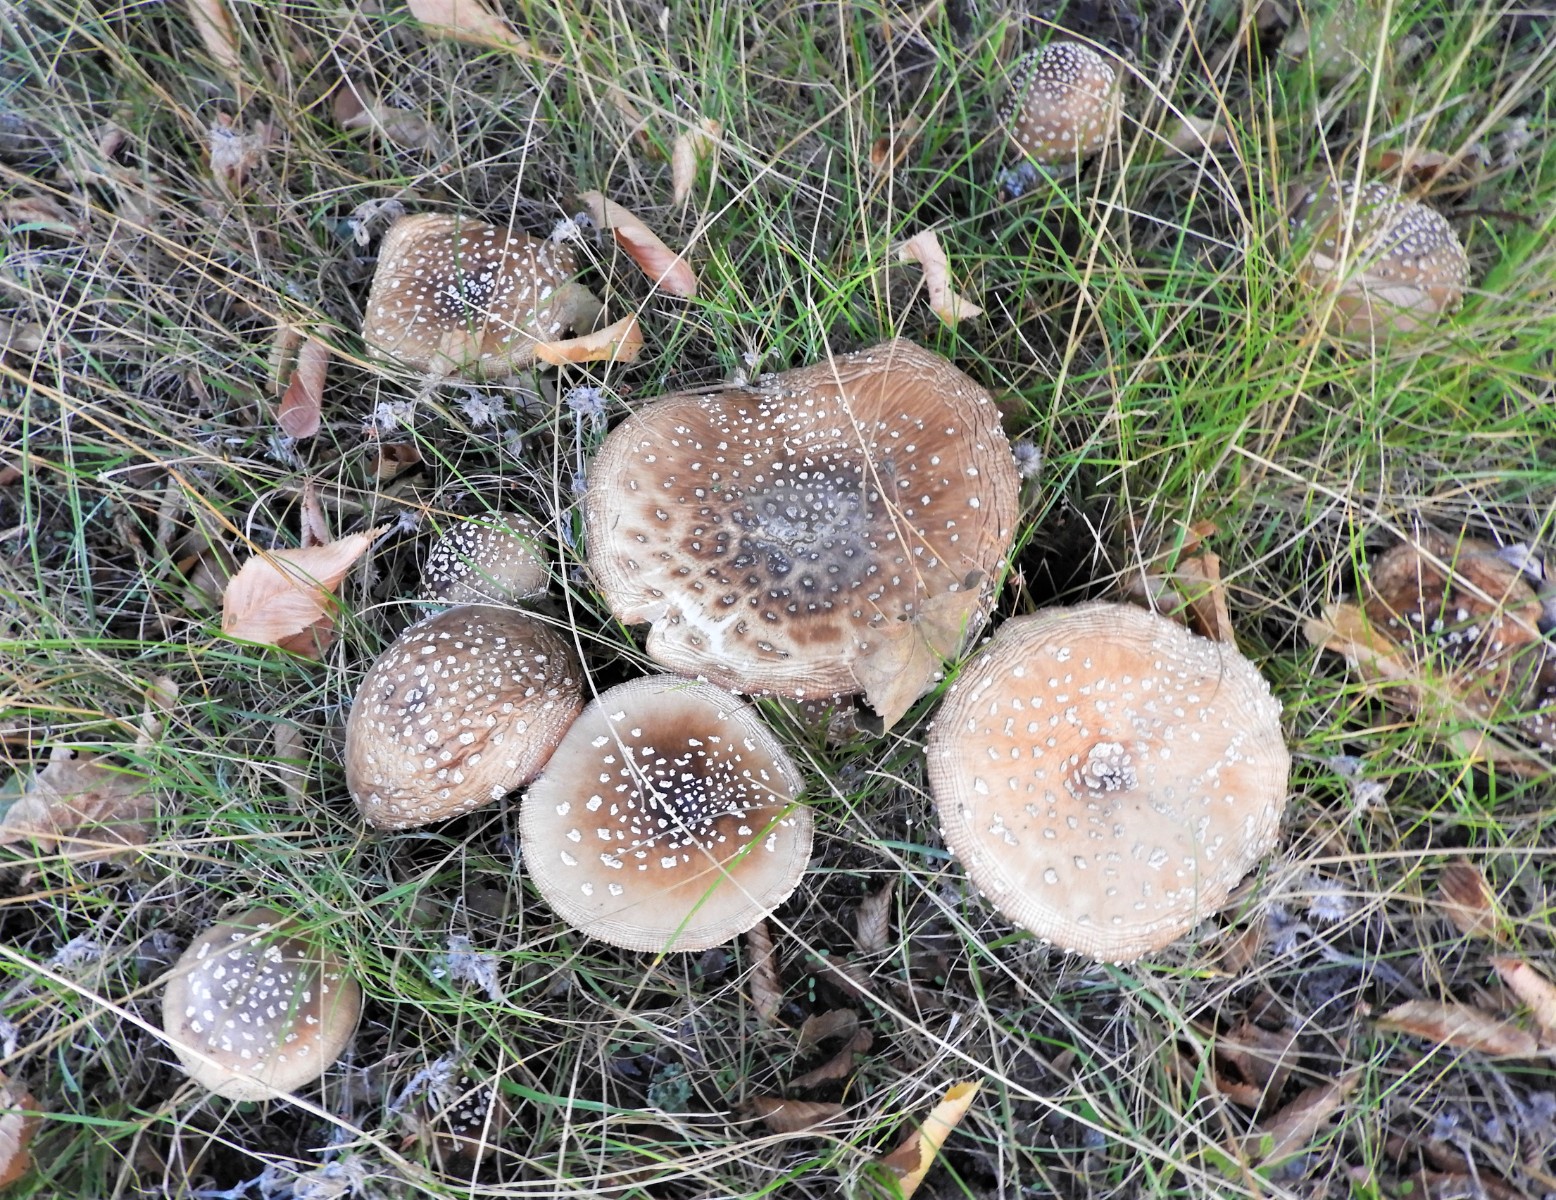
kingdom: Fungi
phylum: Basidiomycota
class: Agaricomycetes
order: Agaricales
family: Amanitaceae
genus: Amanita
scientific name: Amanita pantherina
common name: panter-fluesvamp
